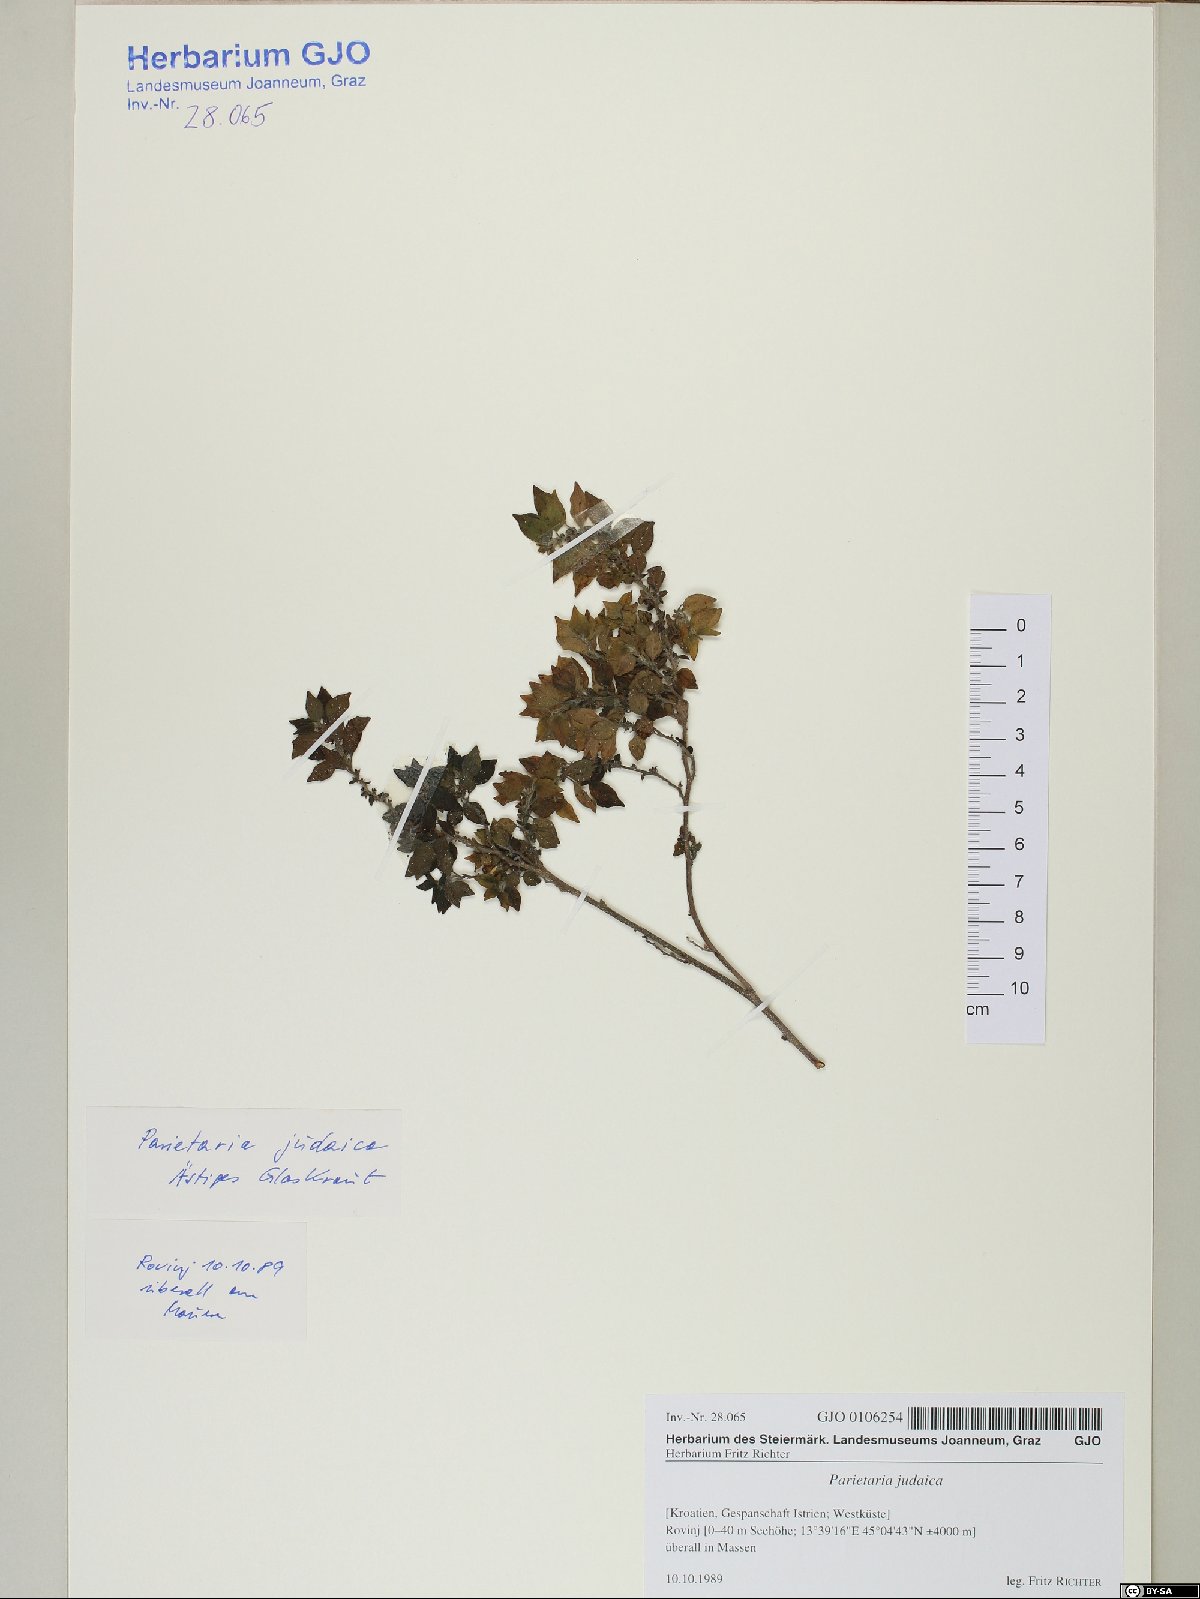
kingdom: Plantae
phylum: Tracheophyta
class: Magnoliopsida
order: Rosales
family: Urticaceae
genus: Parietaria
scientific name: Parietaria judaica
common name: Pellitory-of-the-wall
